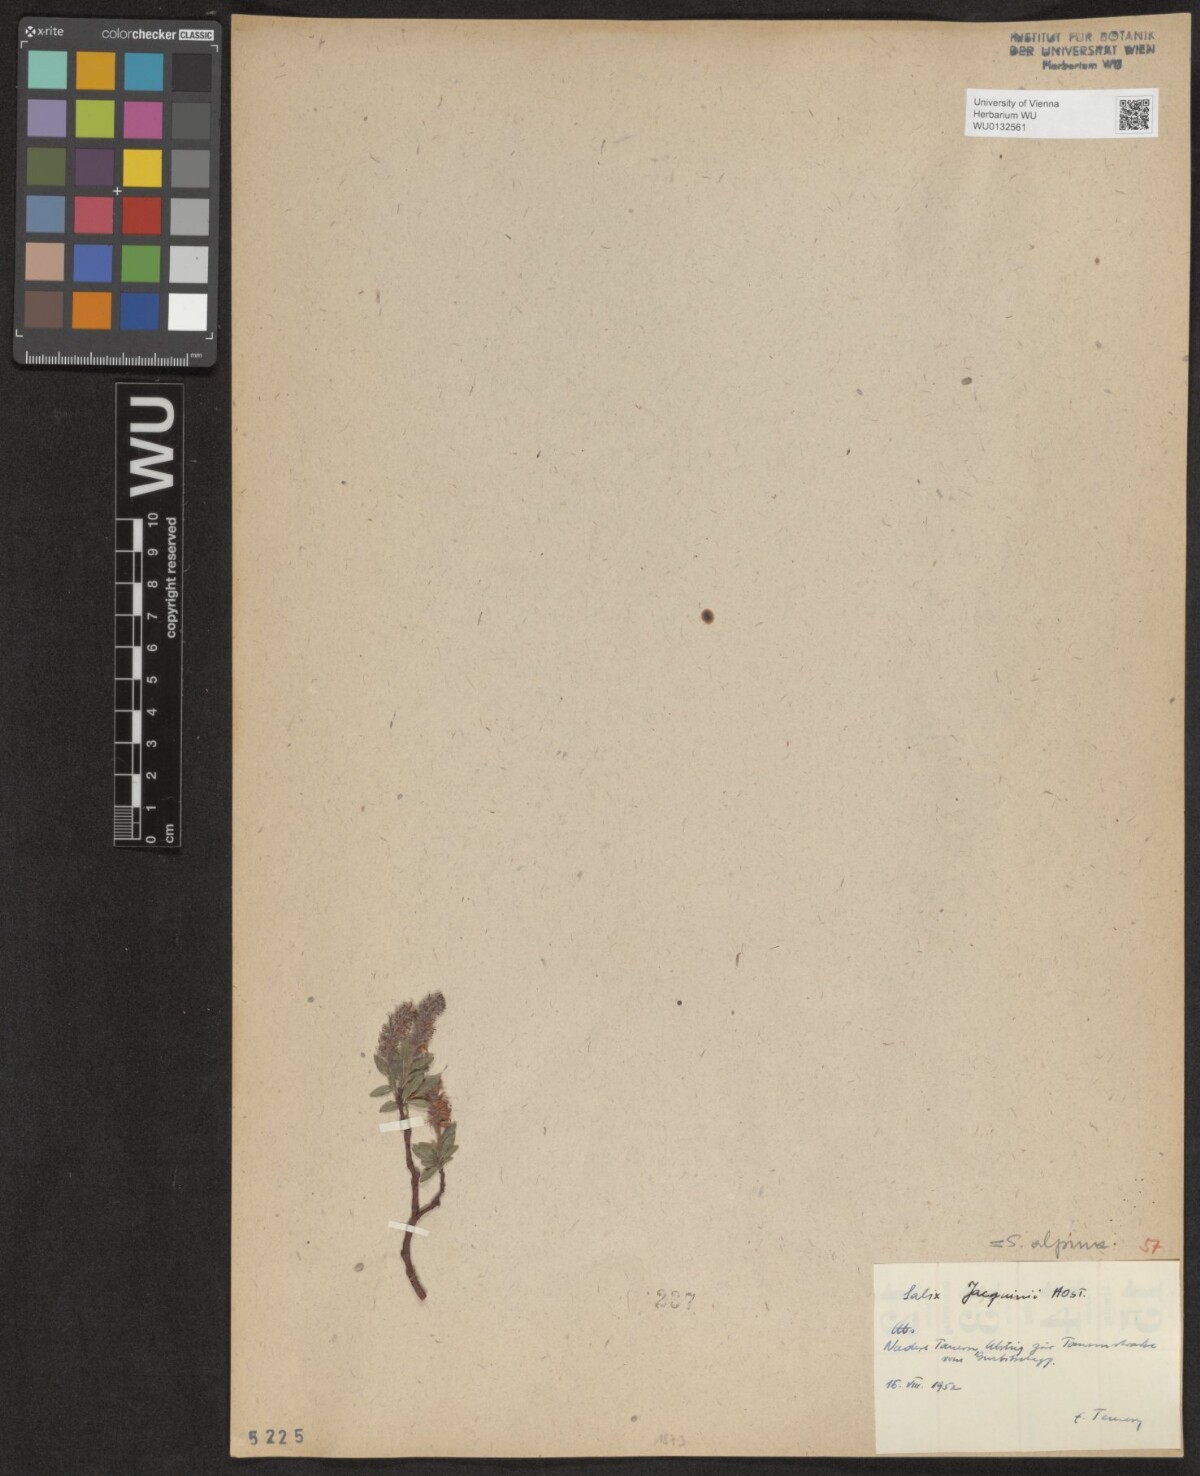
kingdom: Plantae
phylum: Tracheophyta
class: Magnoliopsida
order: Malpighiales
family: Salicaceae
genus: Salix
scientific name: Salix alpina
